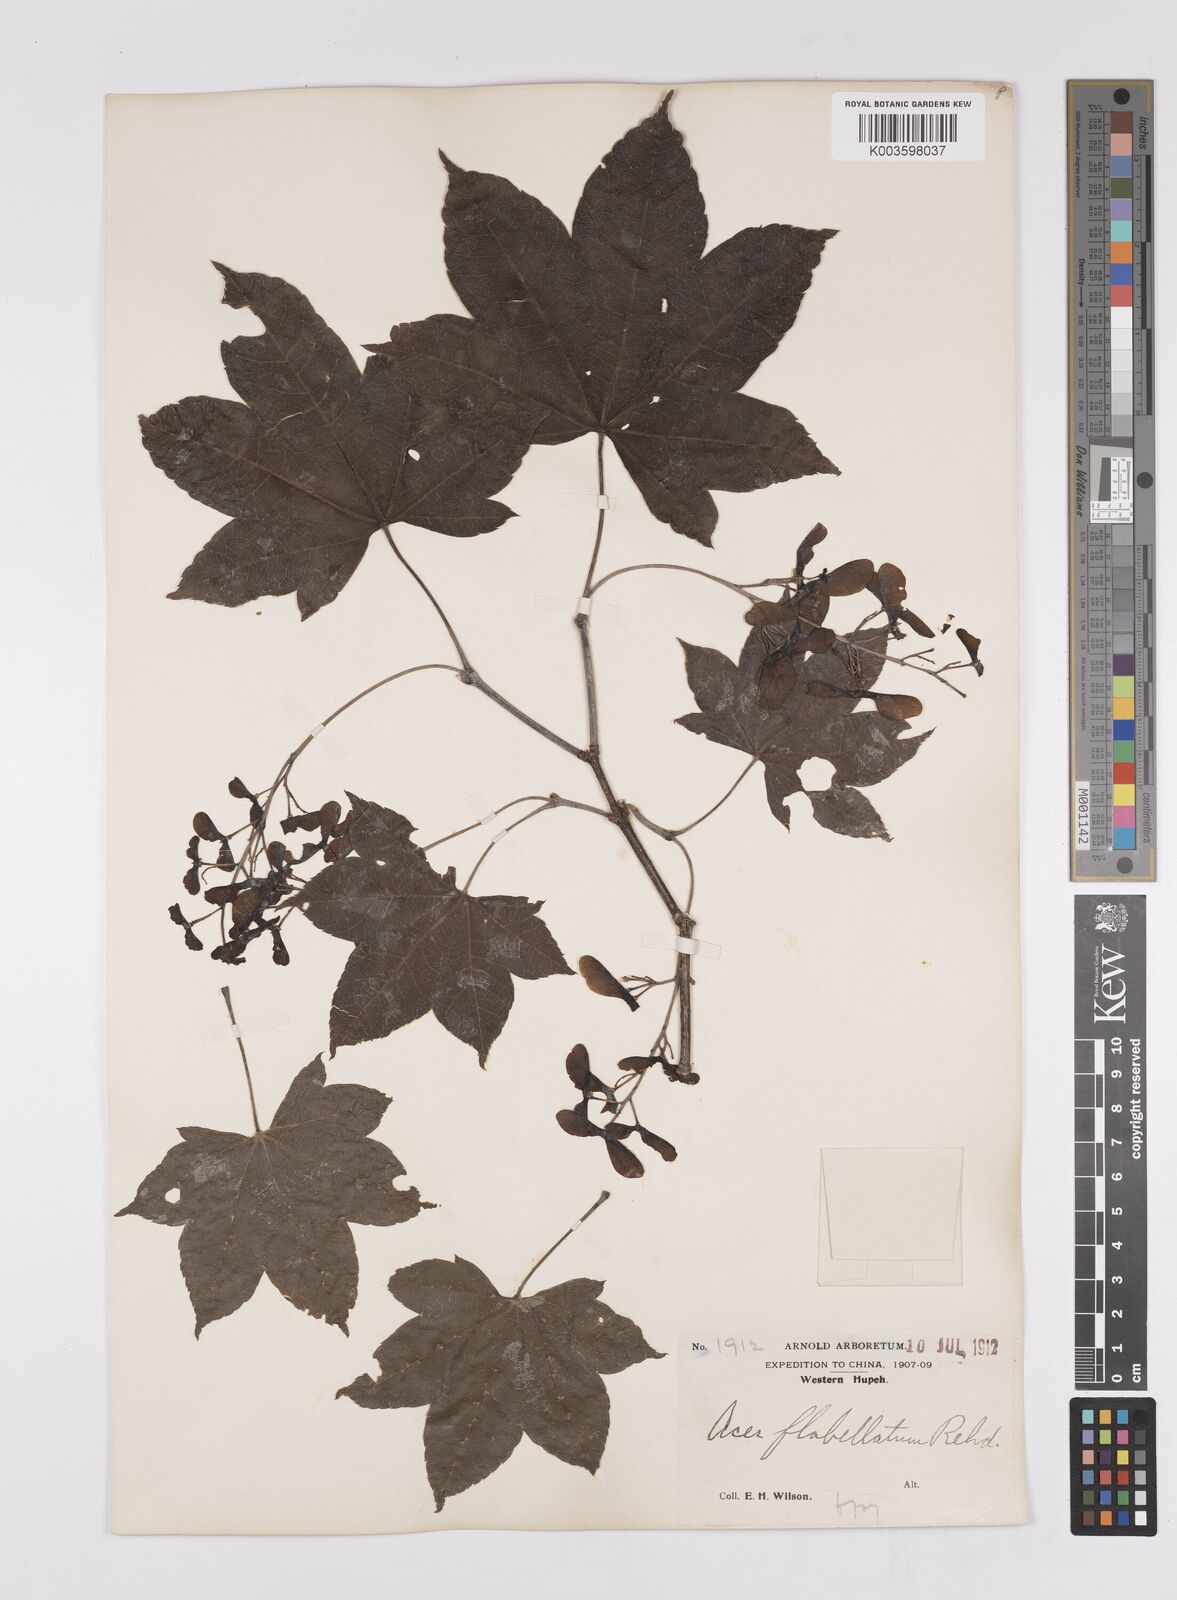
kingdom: Plantae
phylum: Tracheophyta
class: Magnoliopsida
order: Sapindales
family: Sapindaceae
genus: Acer
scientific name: Acer
